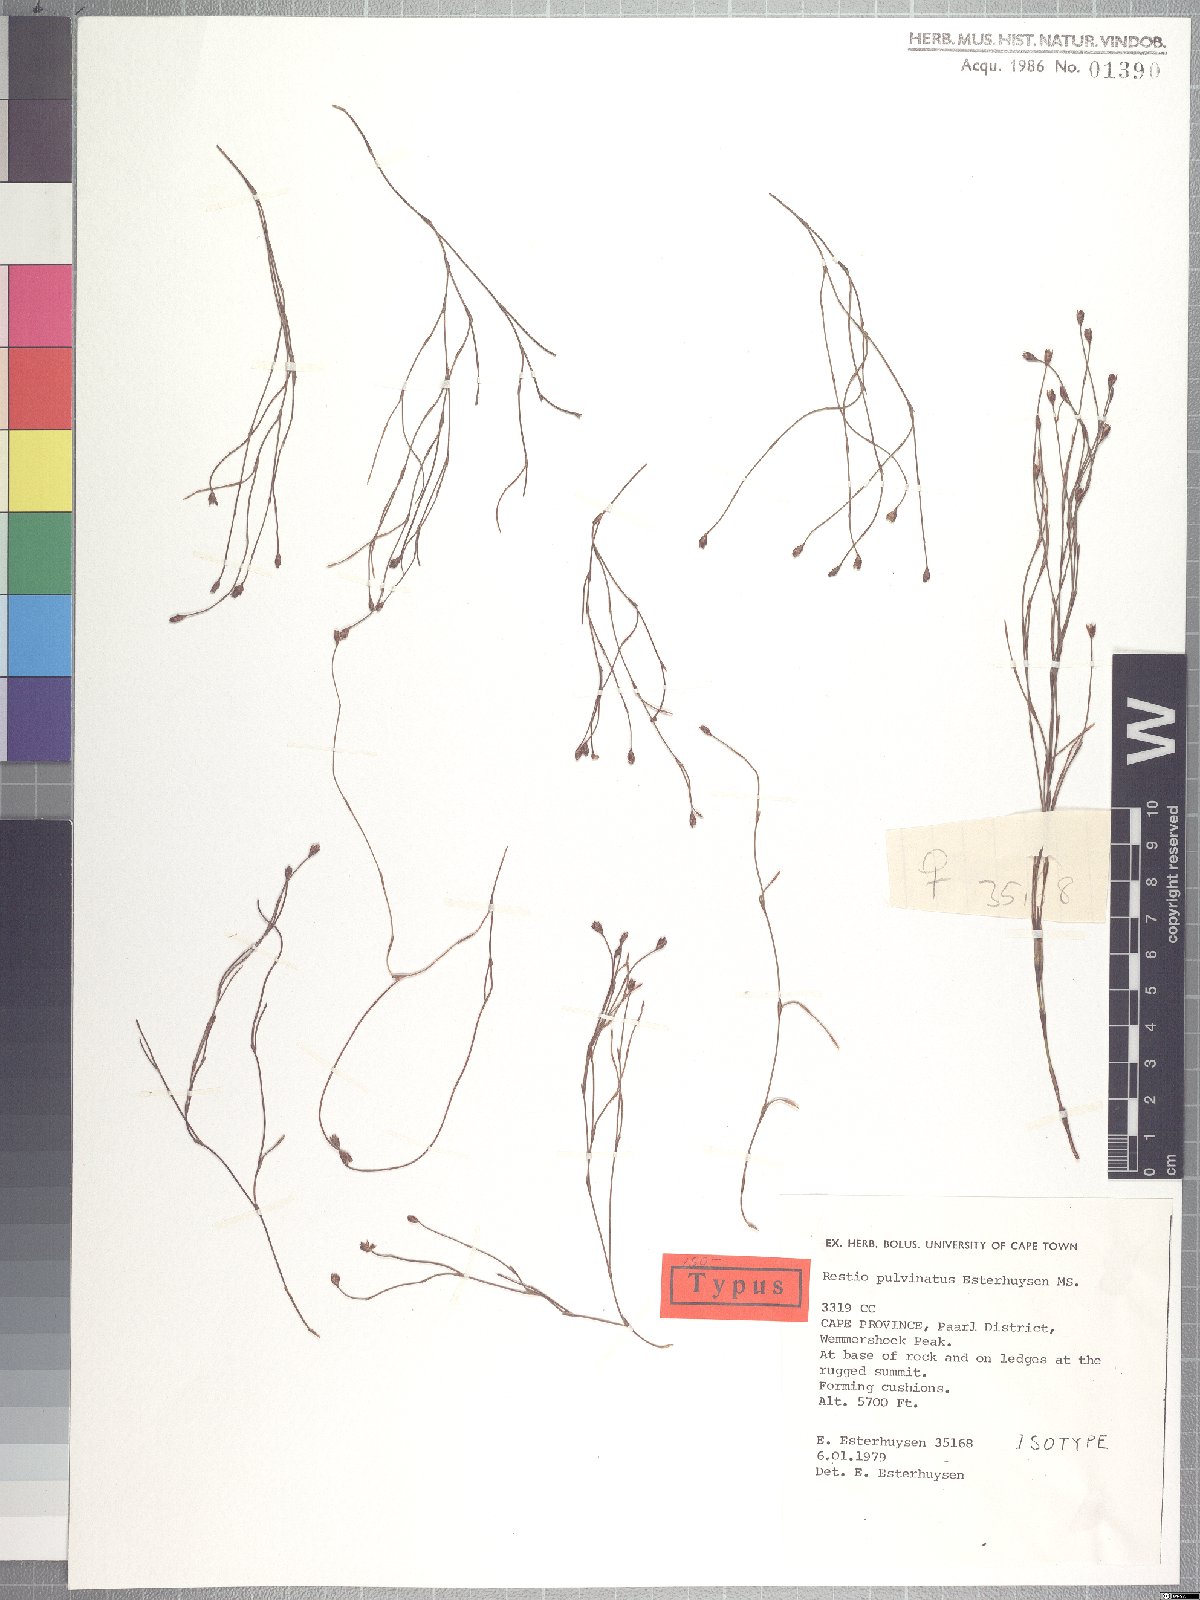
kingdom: Plantae
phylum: Tracheophyta
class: Liliopsida
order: Poales
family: Restionaceae
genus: Restio
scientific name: Restio pulvinatus
